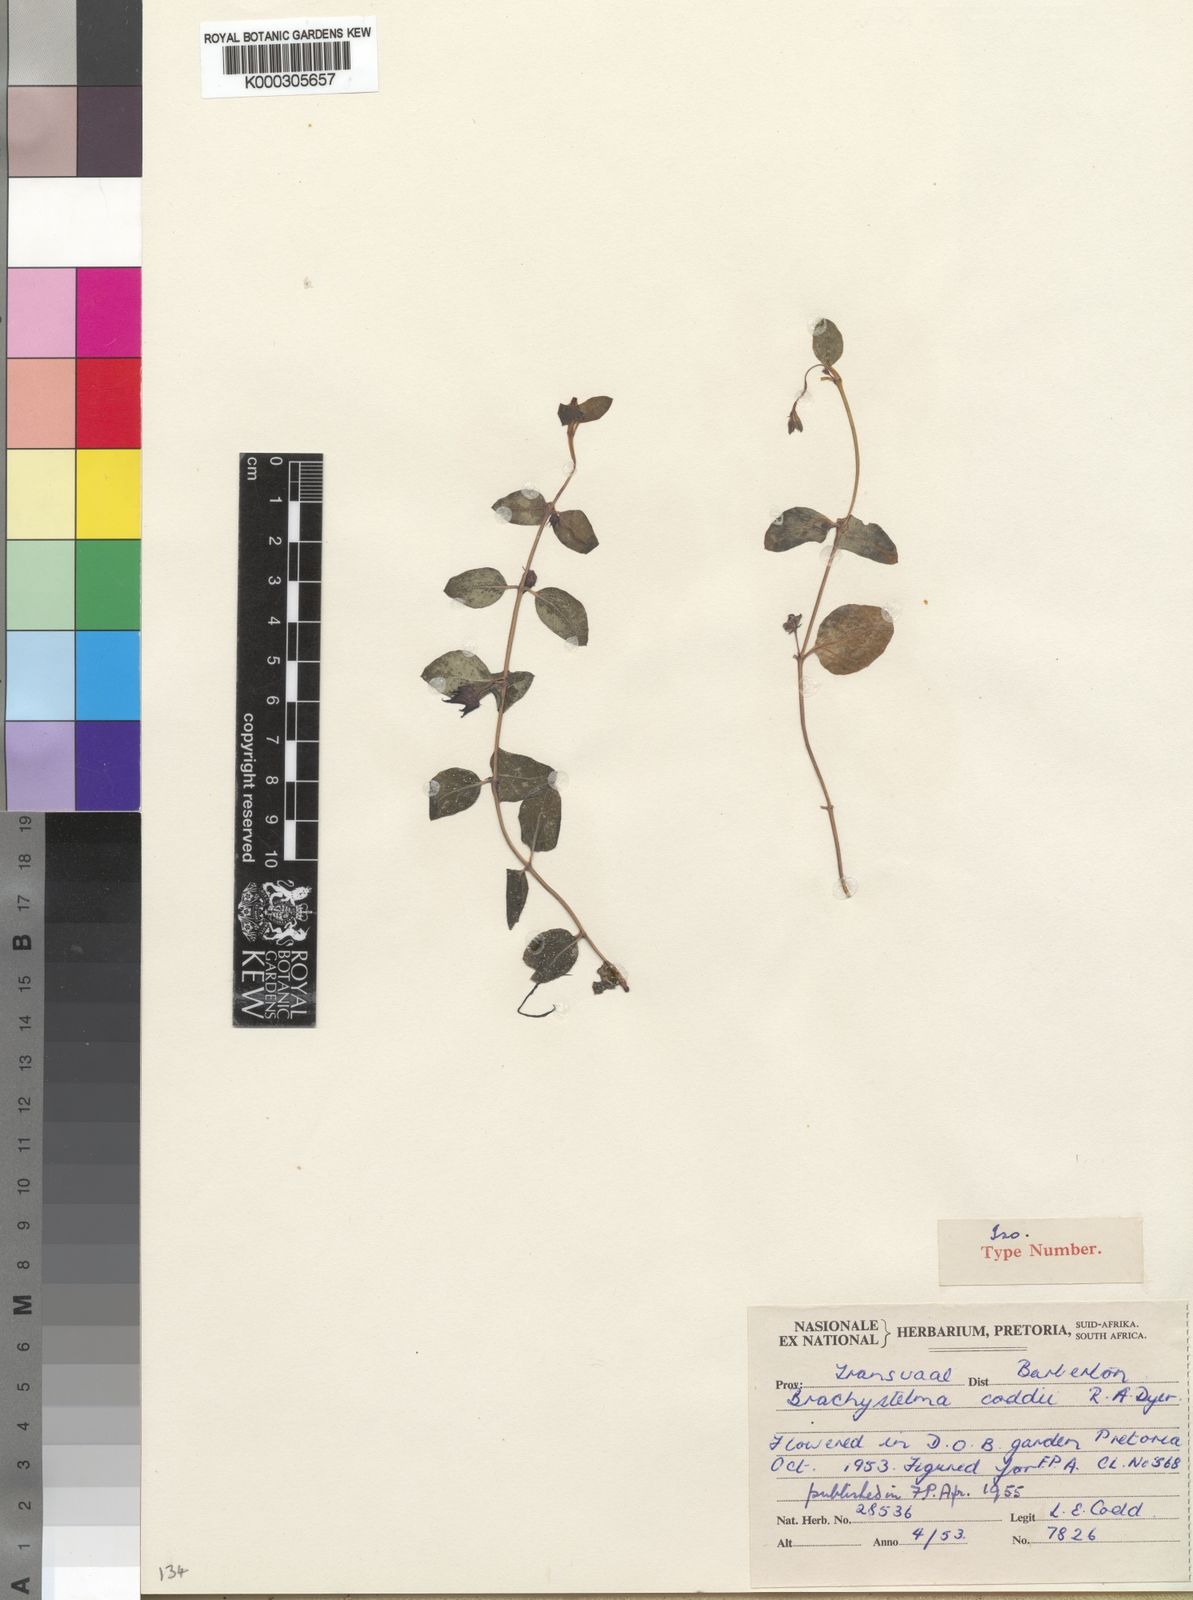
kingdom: Plantae
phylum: Tracheophyta
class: Magnoliopsida
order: Gentianales
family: Apocynaceae
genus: Ceropegia
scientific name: Ceropegia coddii
